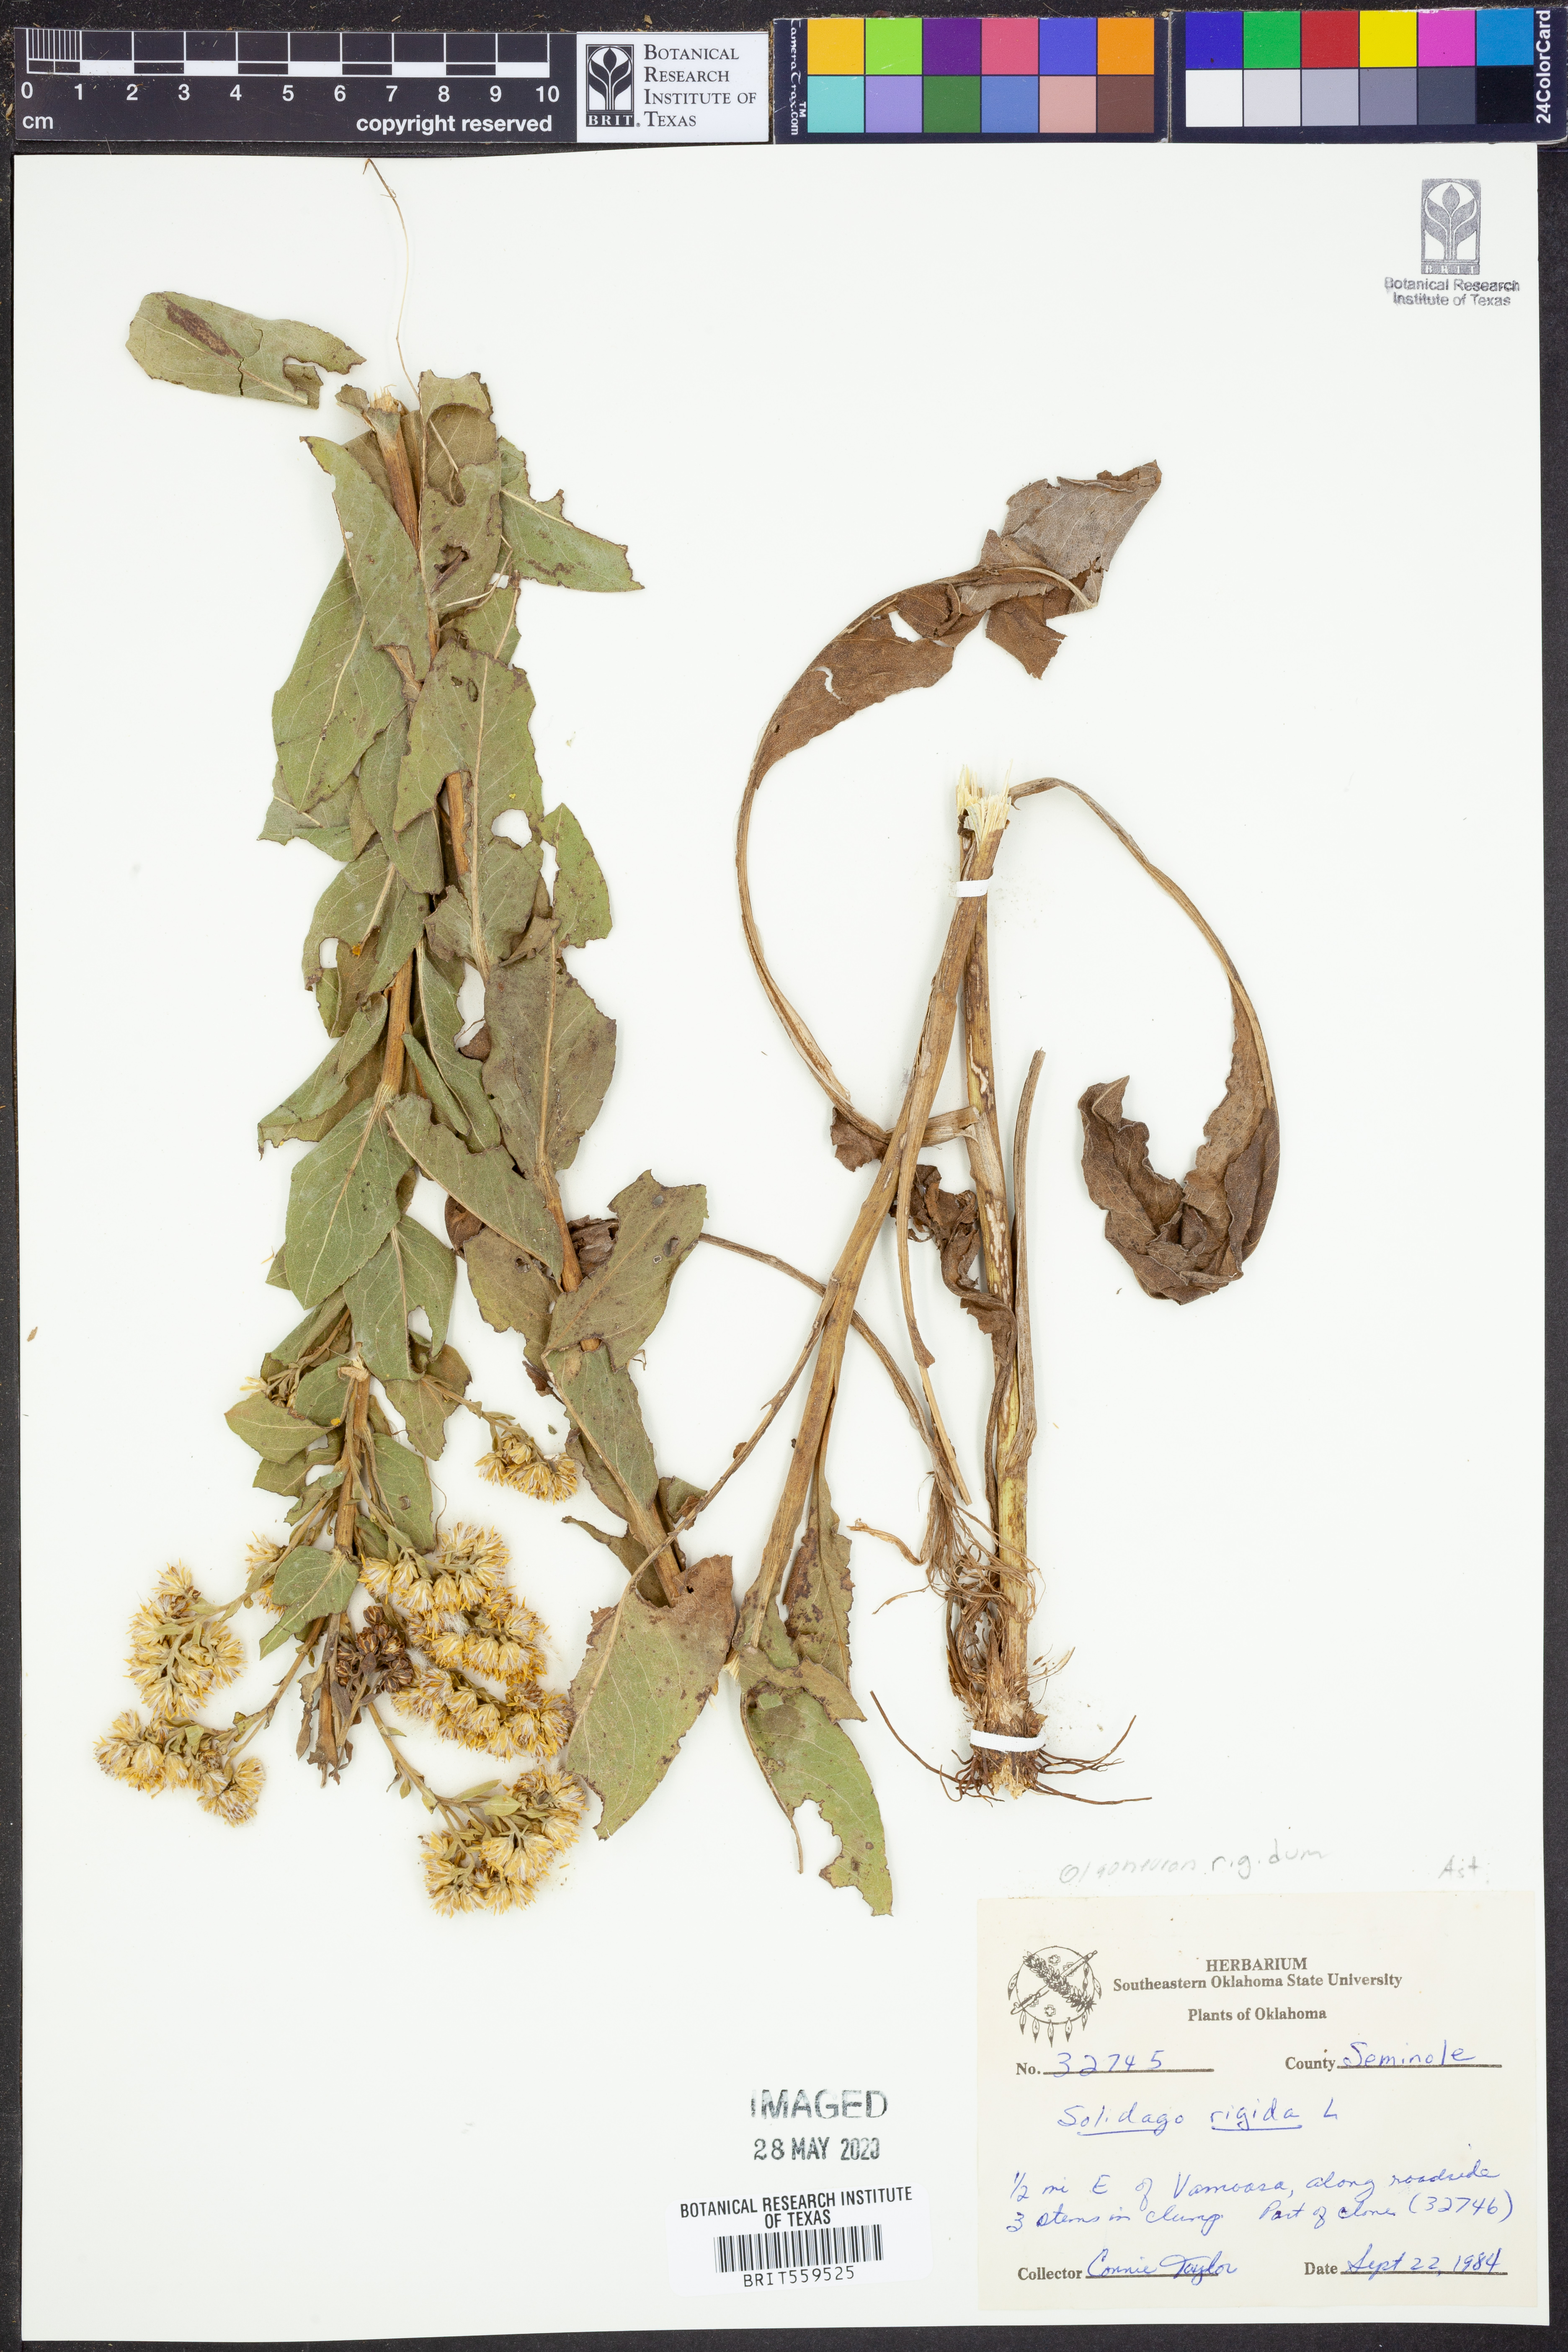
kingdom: Plantae
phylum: Tracheophyta
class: Magnoliopsida
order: Asterales
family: Asteraceae
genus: Solidago
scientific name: Solidago rigida
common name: Rigid goldenrod
